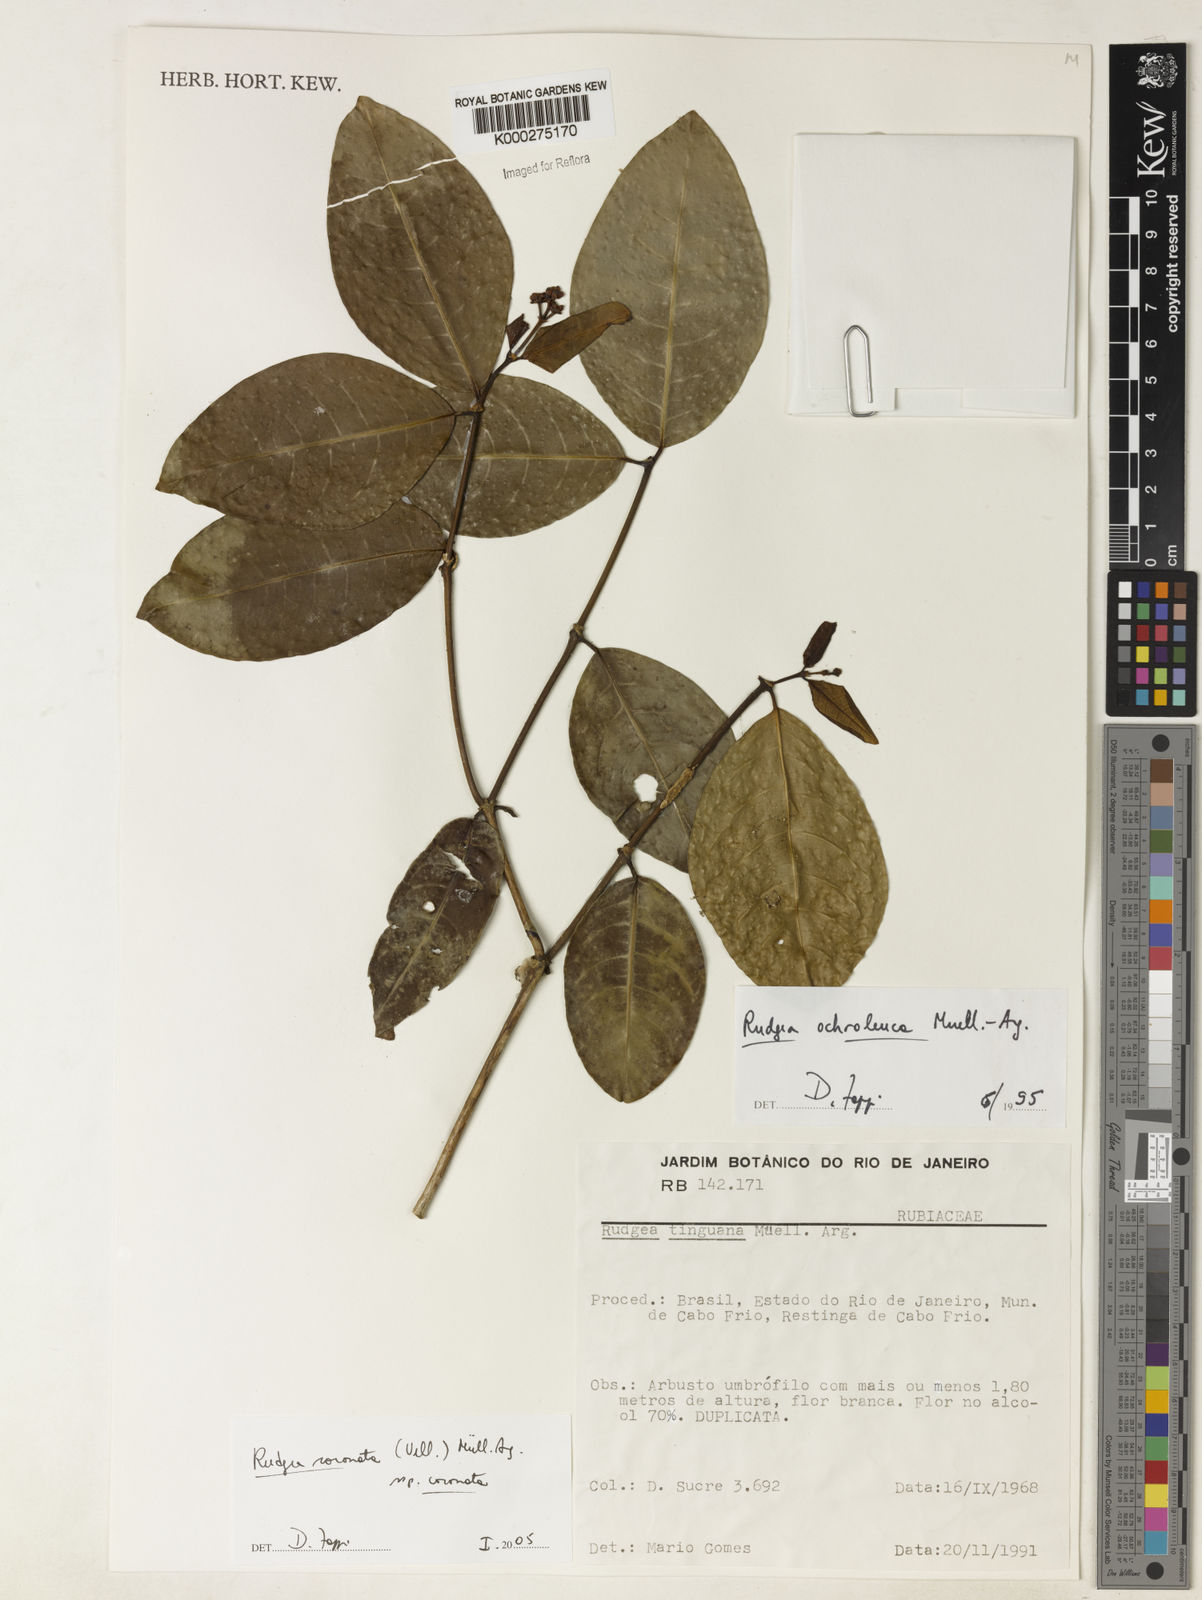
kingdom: Plantae
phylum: Tracheophyta
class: Magnoliopsida
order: Gentianales
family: Rubiaceae
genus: Rudgea
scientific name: Rudgea coronata
